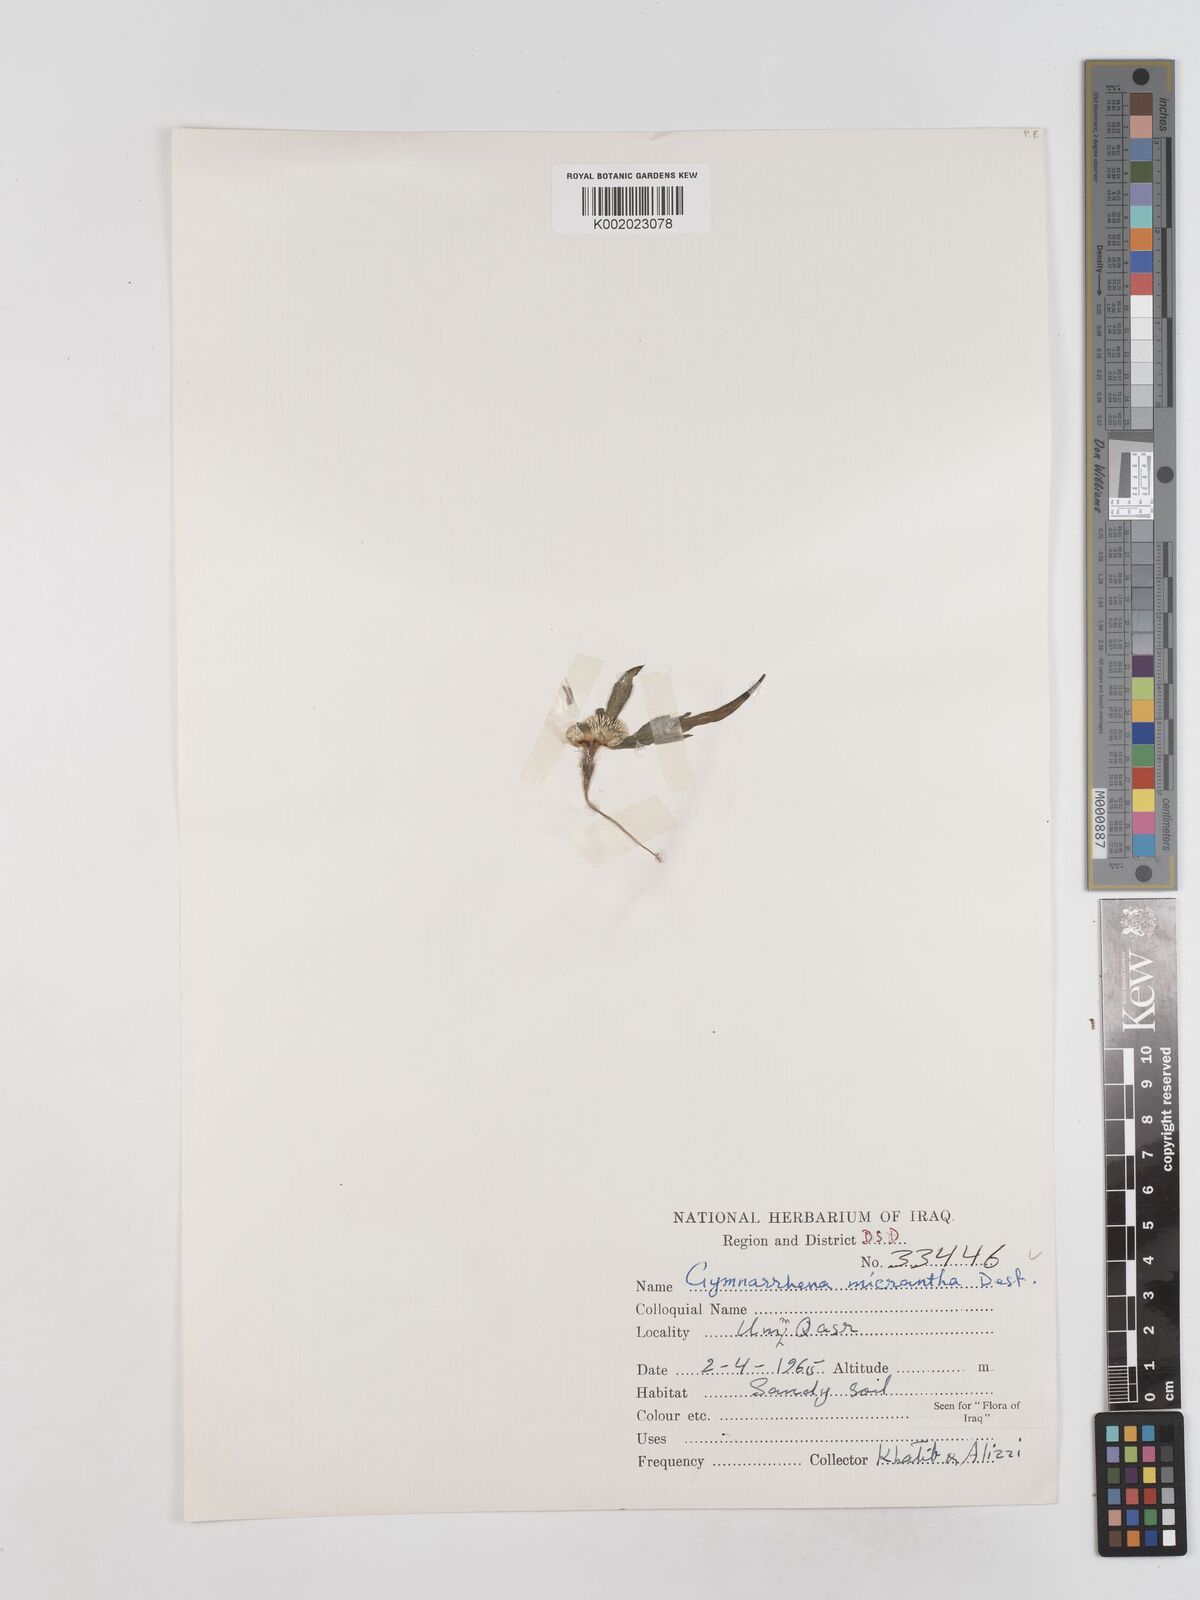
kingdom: Plantae
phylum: Tracheophyta
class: Magnoliopsida
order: Asterales
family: Asteraceae
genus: Gymnarrhena
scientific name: Gymnarrhena micrantha
